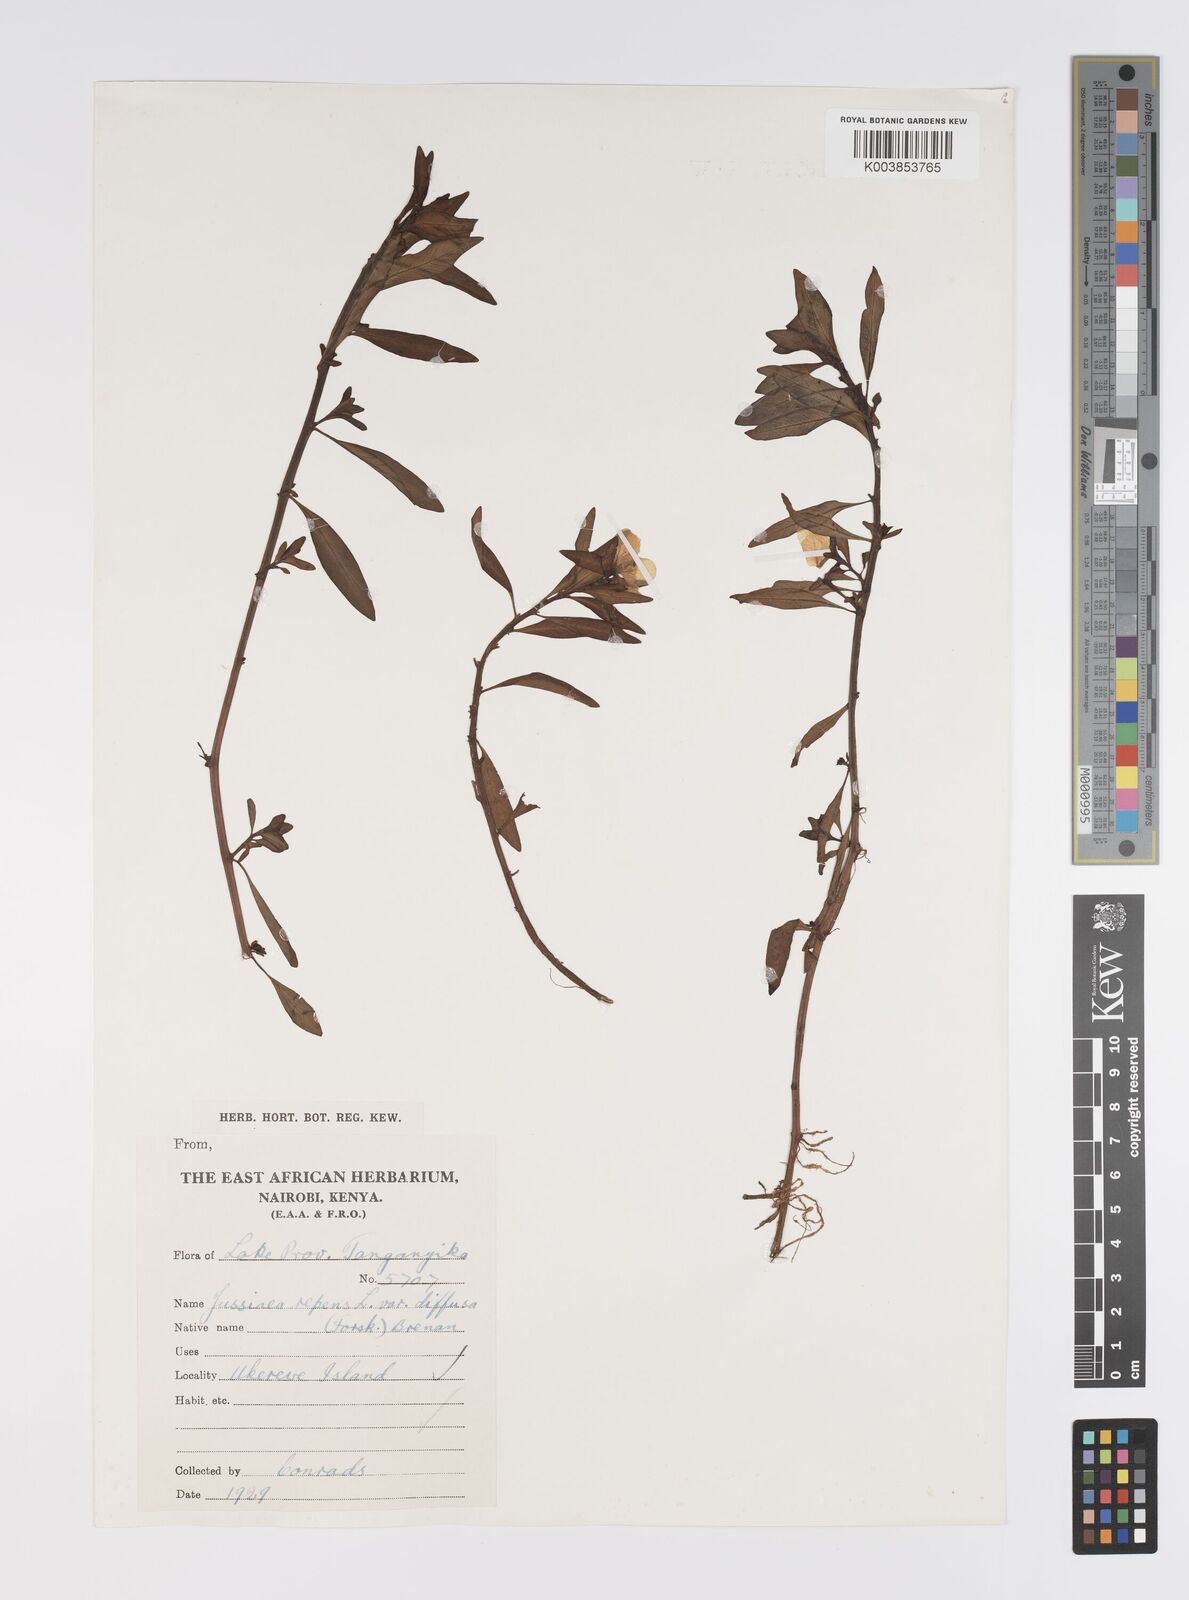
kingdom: Plantae
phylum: Tracheophyta
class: Magnoliopsida
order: Myrtales
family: Onagraceae
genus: Ludwigia
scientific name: Ludwigia repens
